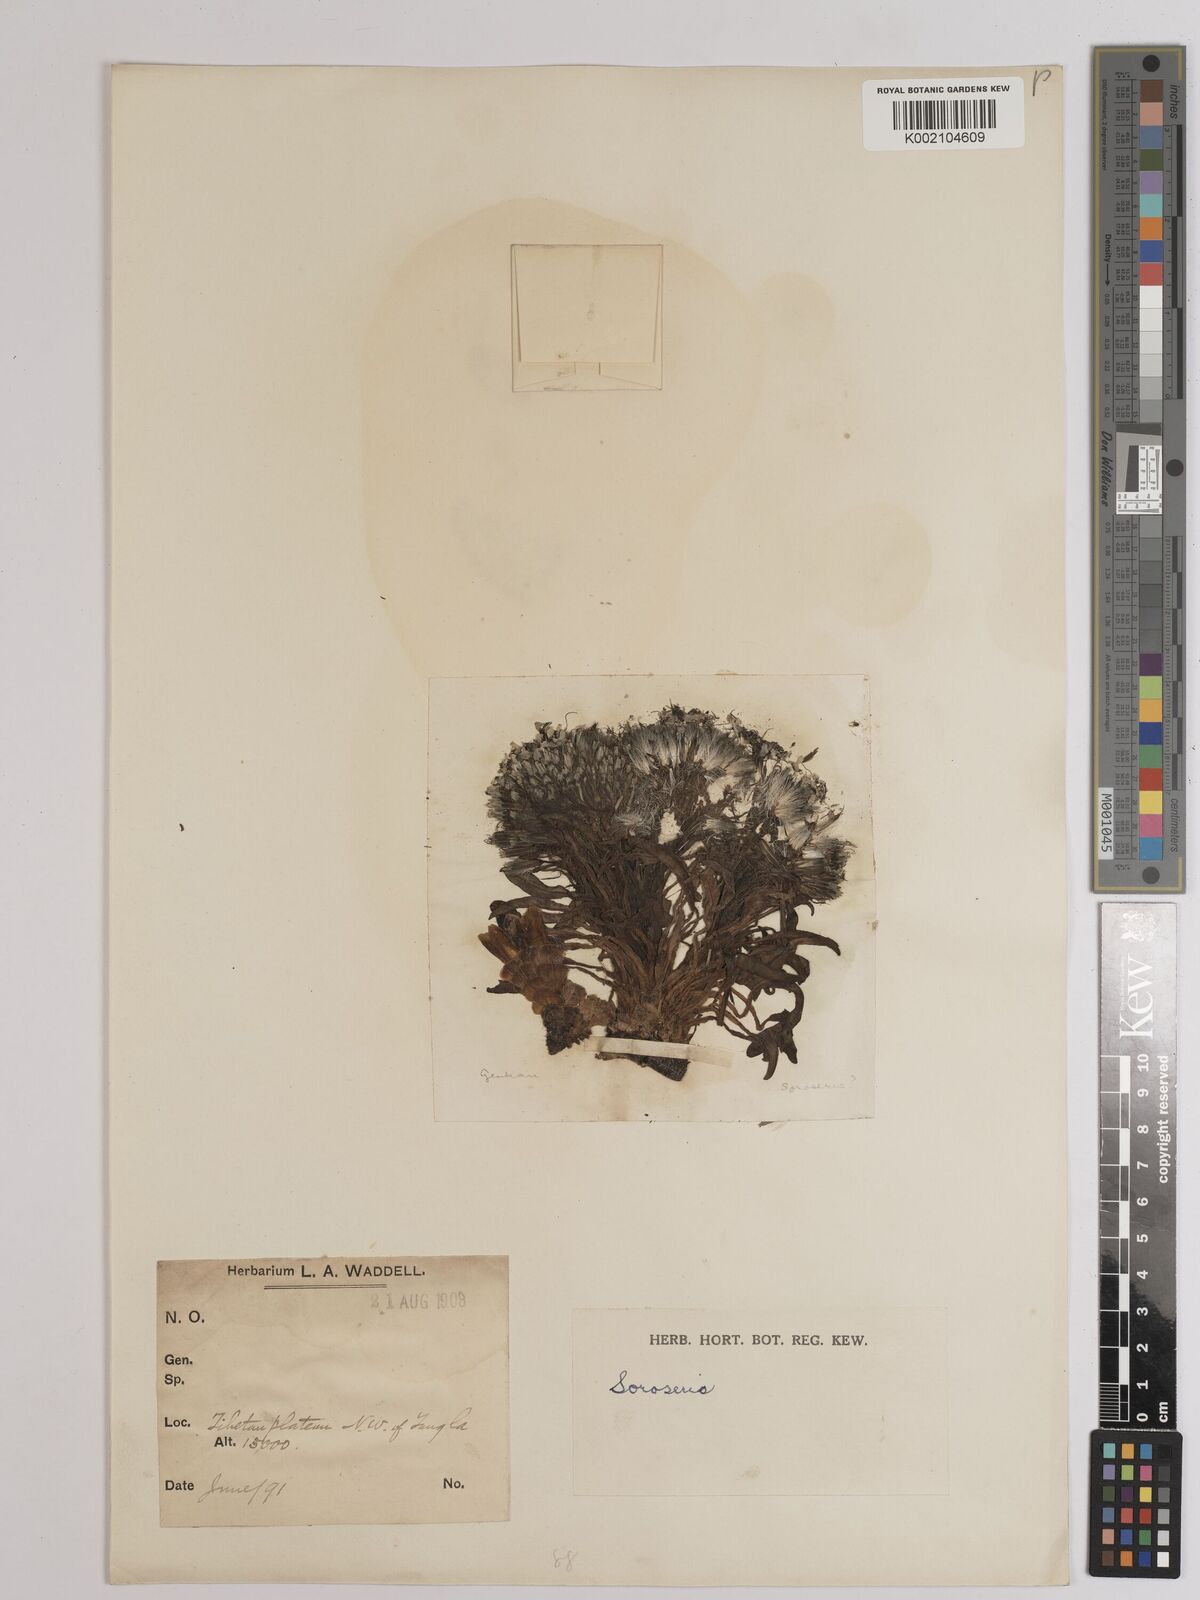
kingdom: Plantae
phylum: Tracheophyta
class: Magnoliopsida
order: Asterales
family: Asteraceae
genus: Soroseris
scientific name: Soroseris
